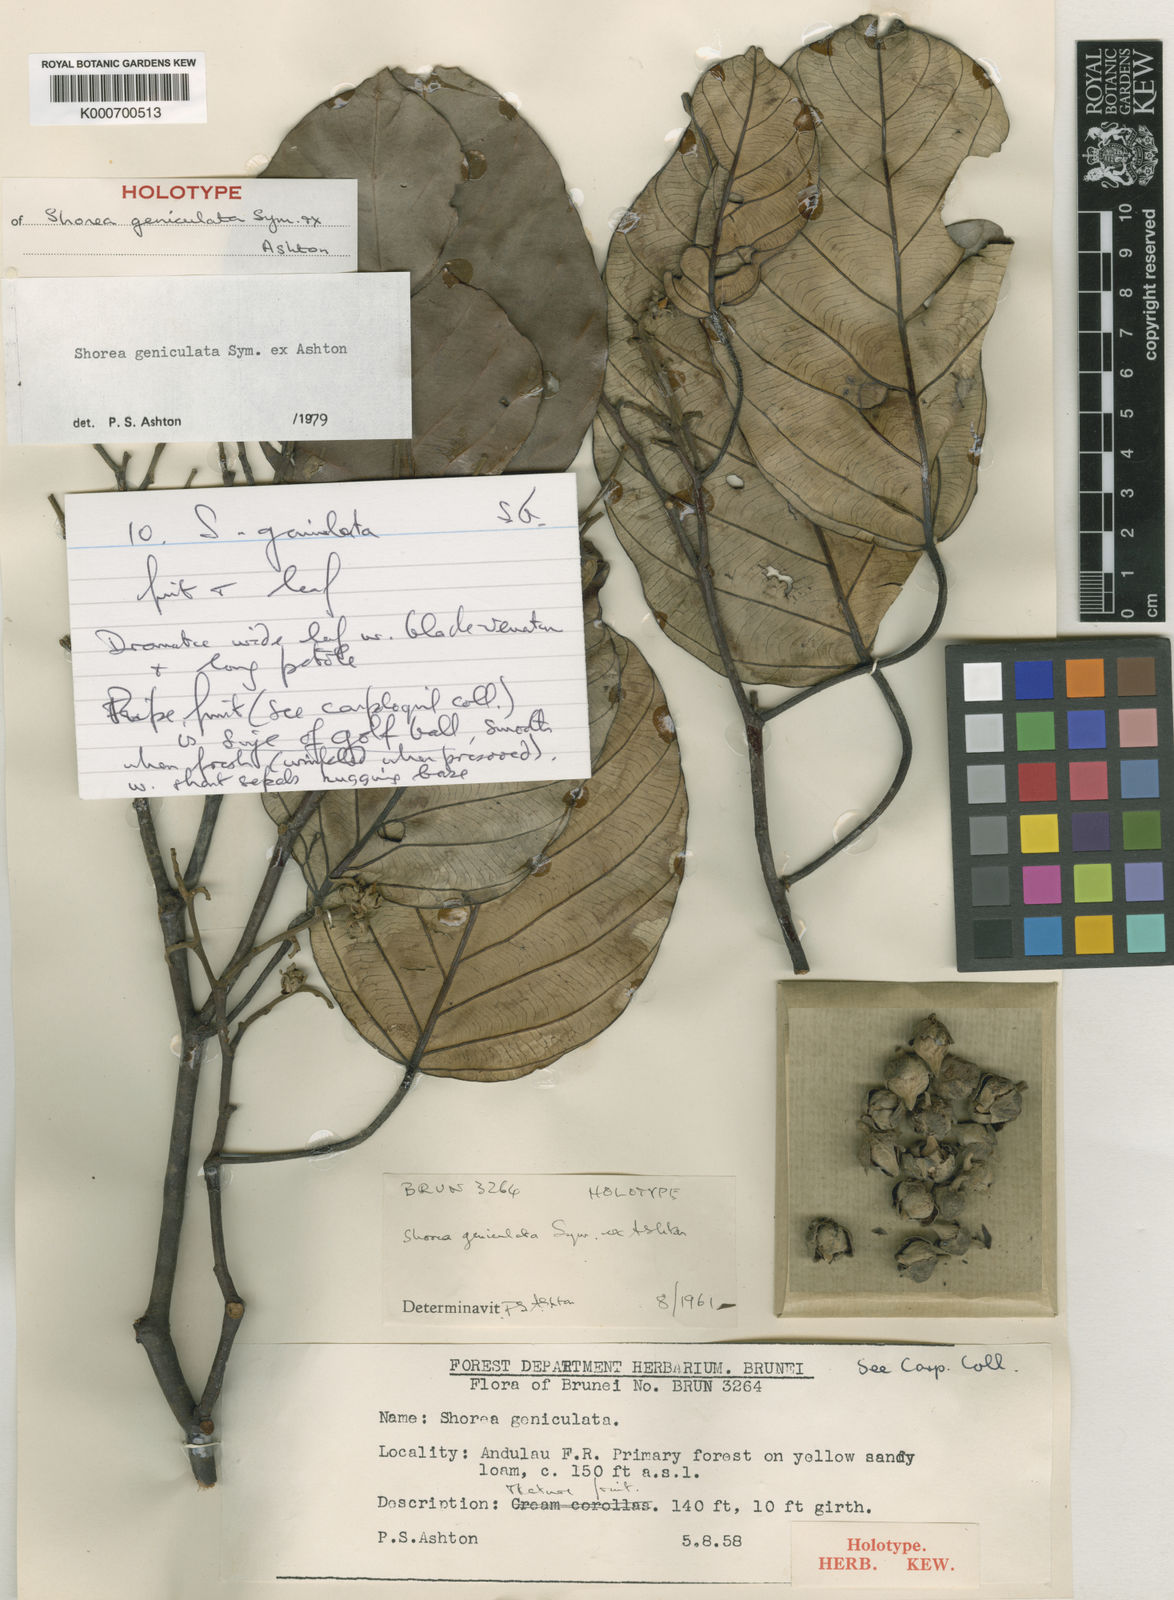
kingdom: Plantae
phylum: Tracheophyta
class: Magnoliopsida
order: Malvales
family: Dipterocarpaceae
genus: Shorea
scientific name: Shorea geniculata
